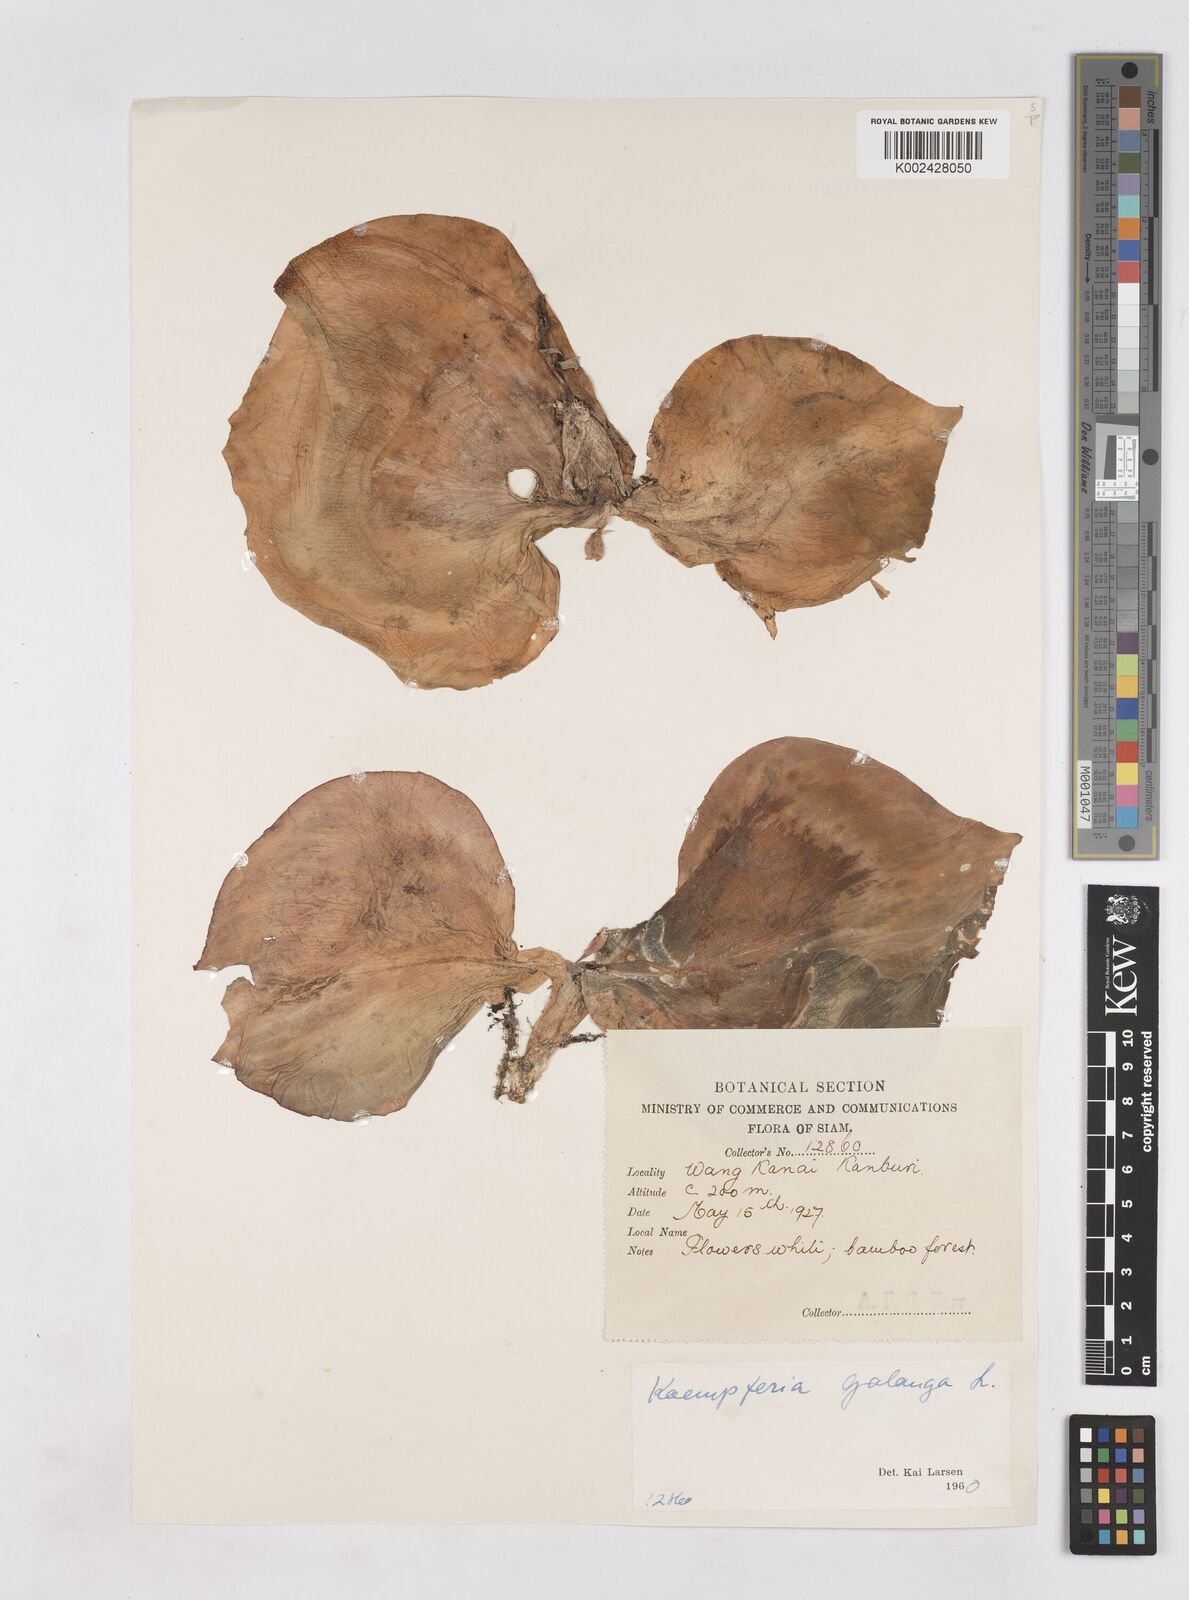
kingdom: Plantae
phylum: Tracheophyta
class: Liliopsida
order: Zingiberales
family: Zingiberaceae
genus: Kaempferia
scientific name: Kaempferia galanga
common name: Aromatic ginger
